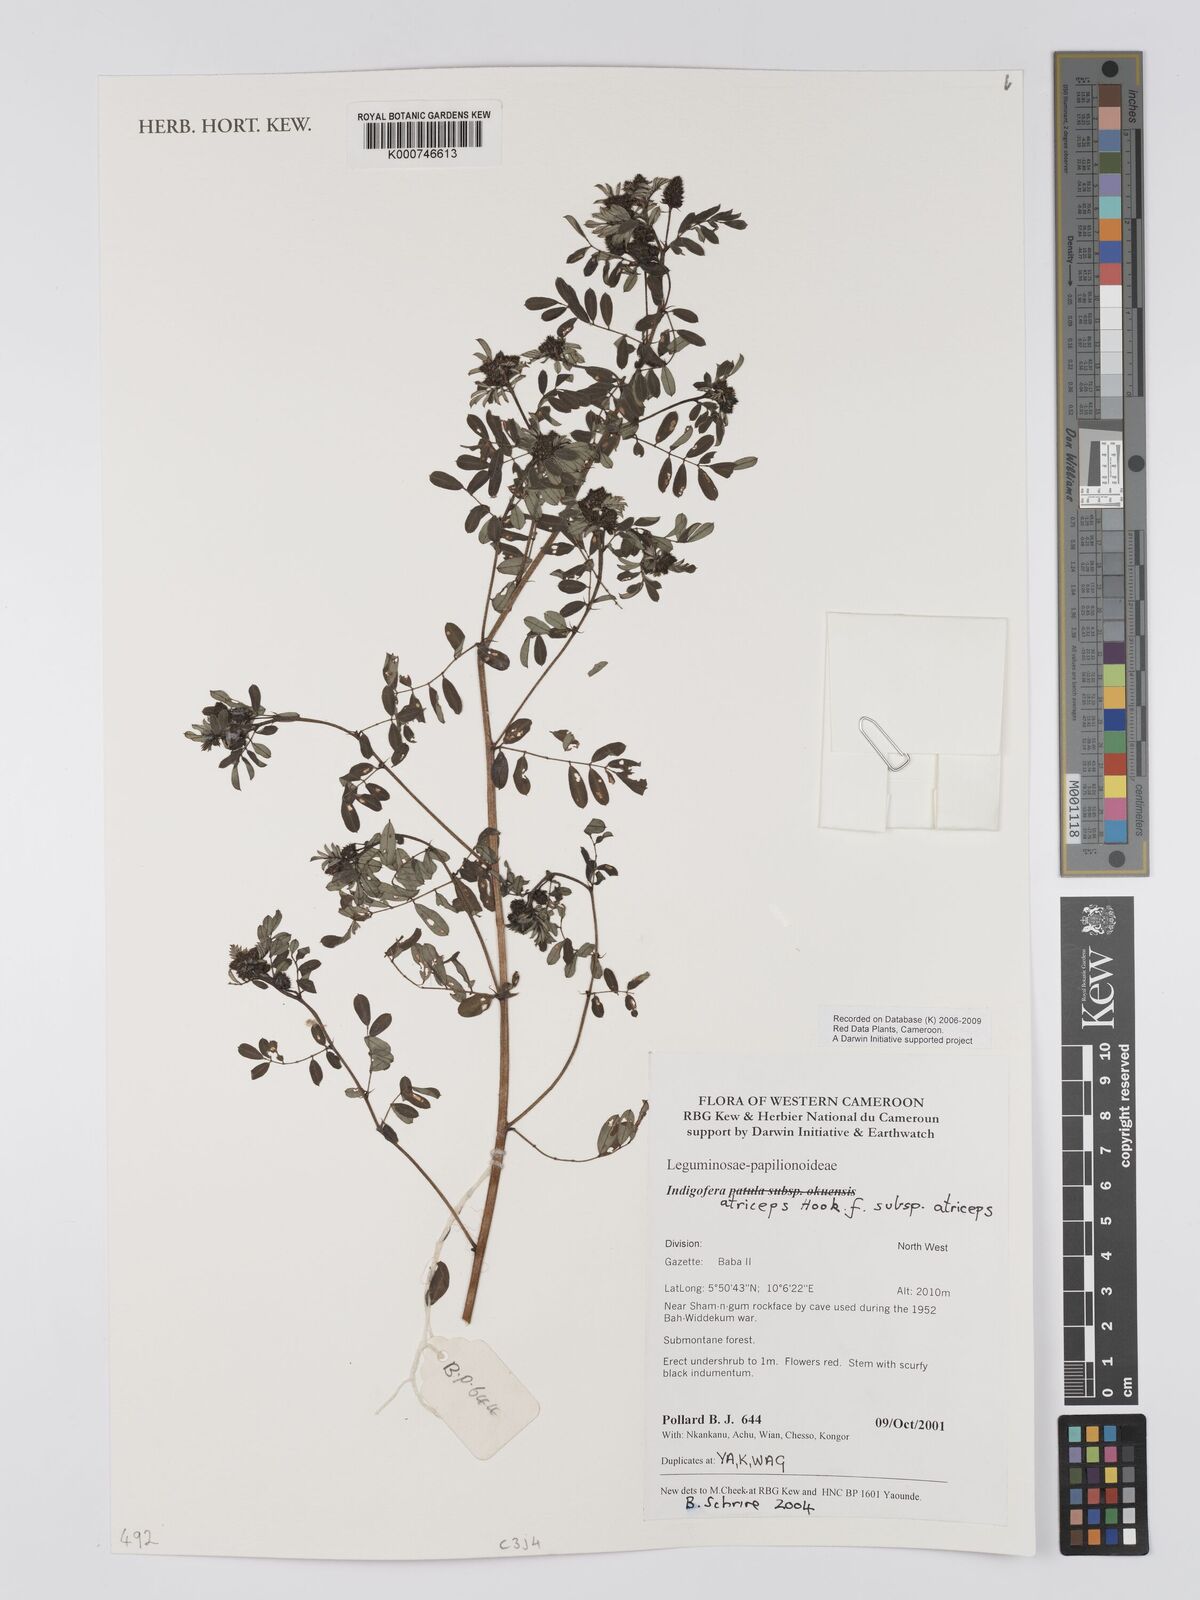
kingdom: Plantae
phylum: Tracheophyta
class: Magnoliopsida
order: Fabales
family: Fabaceae
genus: Indigofera
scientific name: Indigofera atriceps
